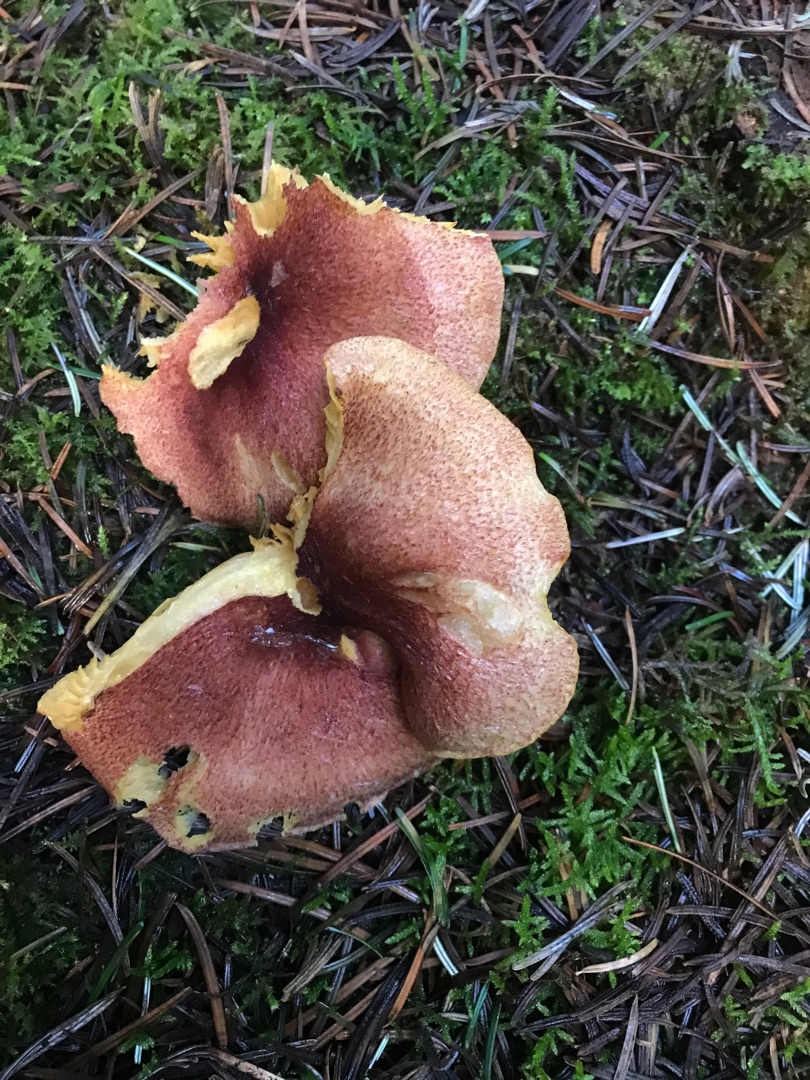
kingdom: Fungi
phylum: Basidiomycota
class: Agaricomycetes
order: Agaricales
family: Tricholomataceae
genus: Tricholomopsis
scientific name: Tricholomopsis rutilans
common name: Purpur-væbnerhat
